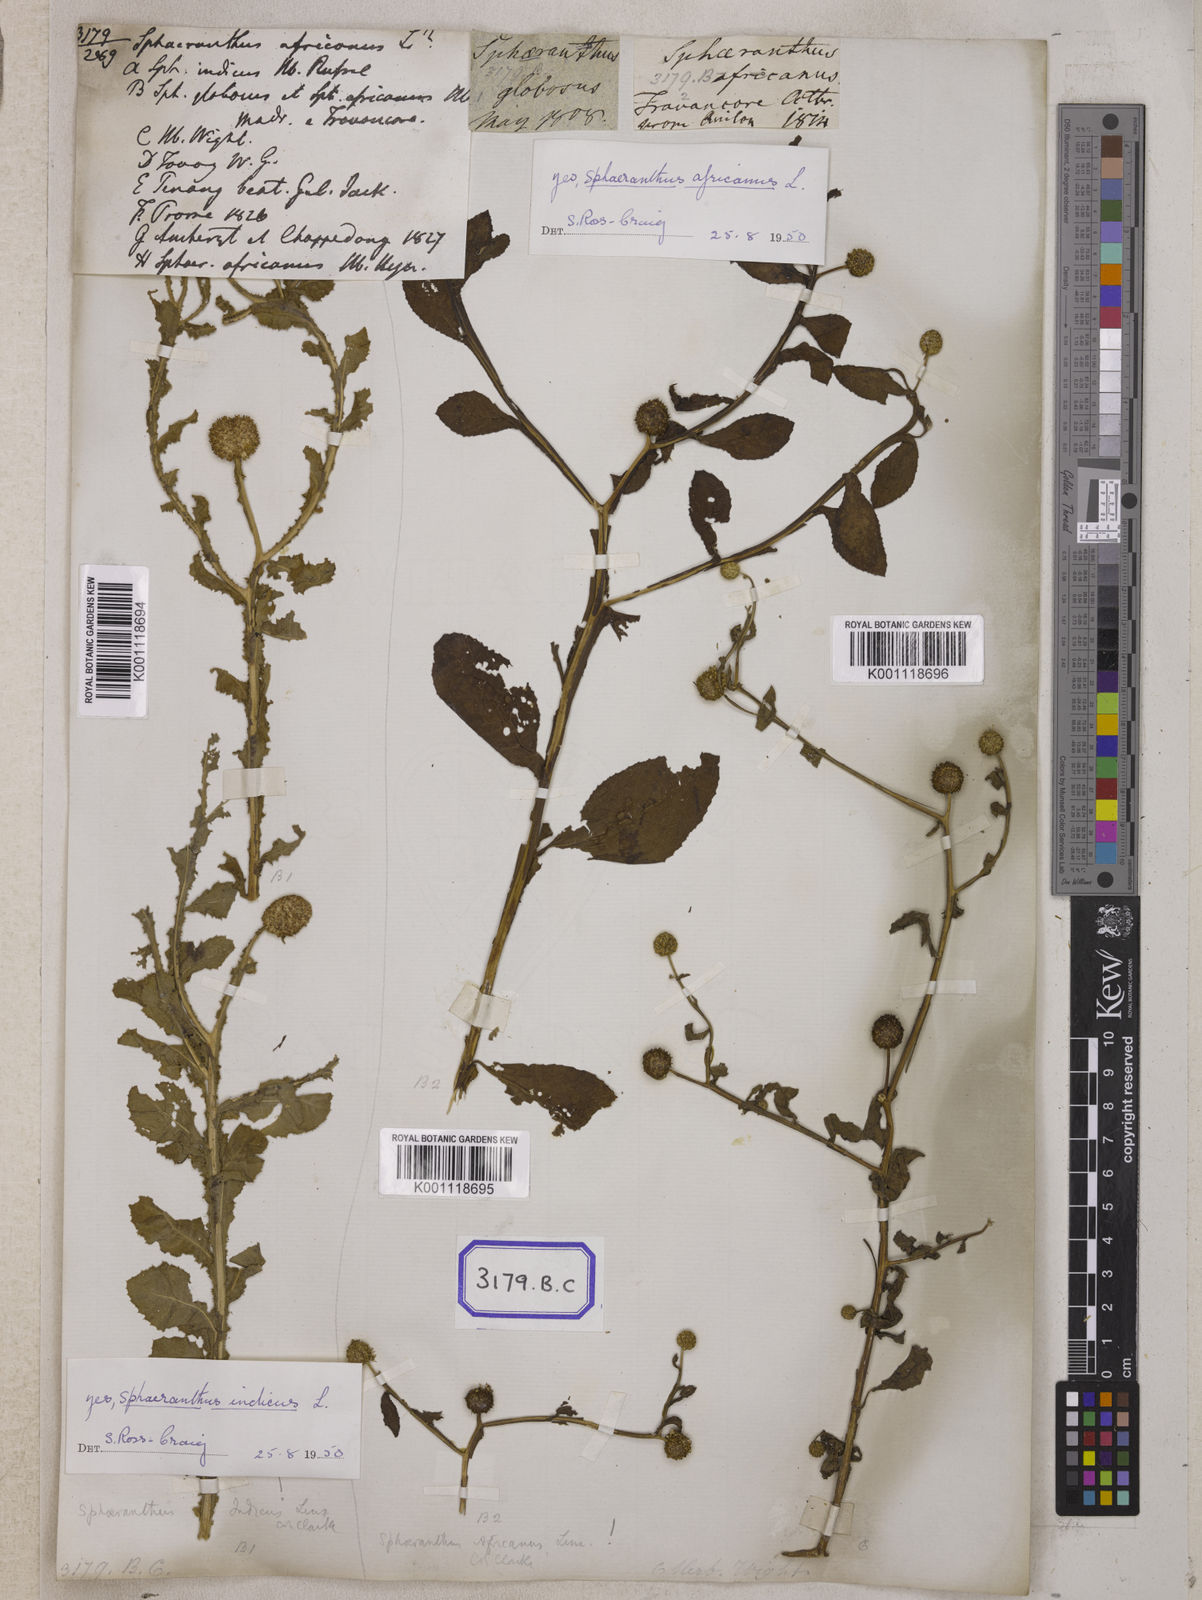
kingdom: Plantae
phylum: Tracheophyta
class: Magnoliopsida
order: Asterales
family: Asteraceae
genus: Sphaeranthus
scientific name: Sphaeranthus senegalensis
